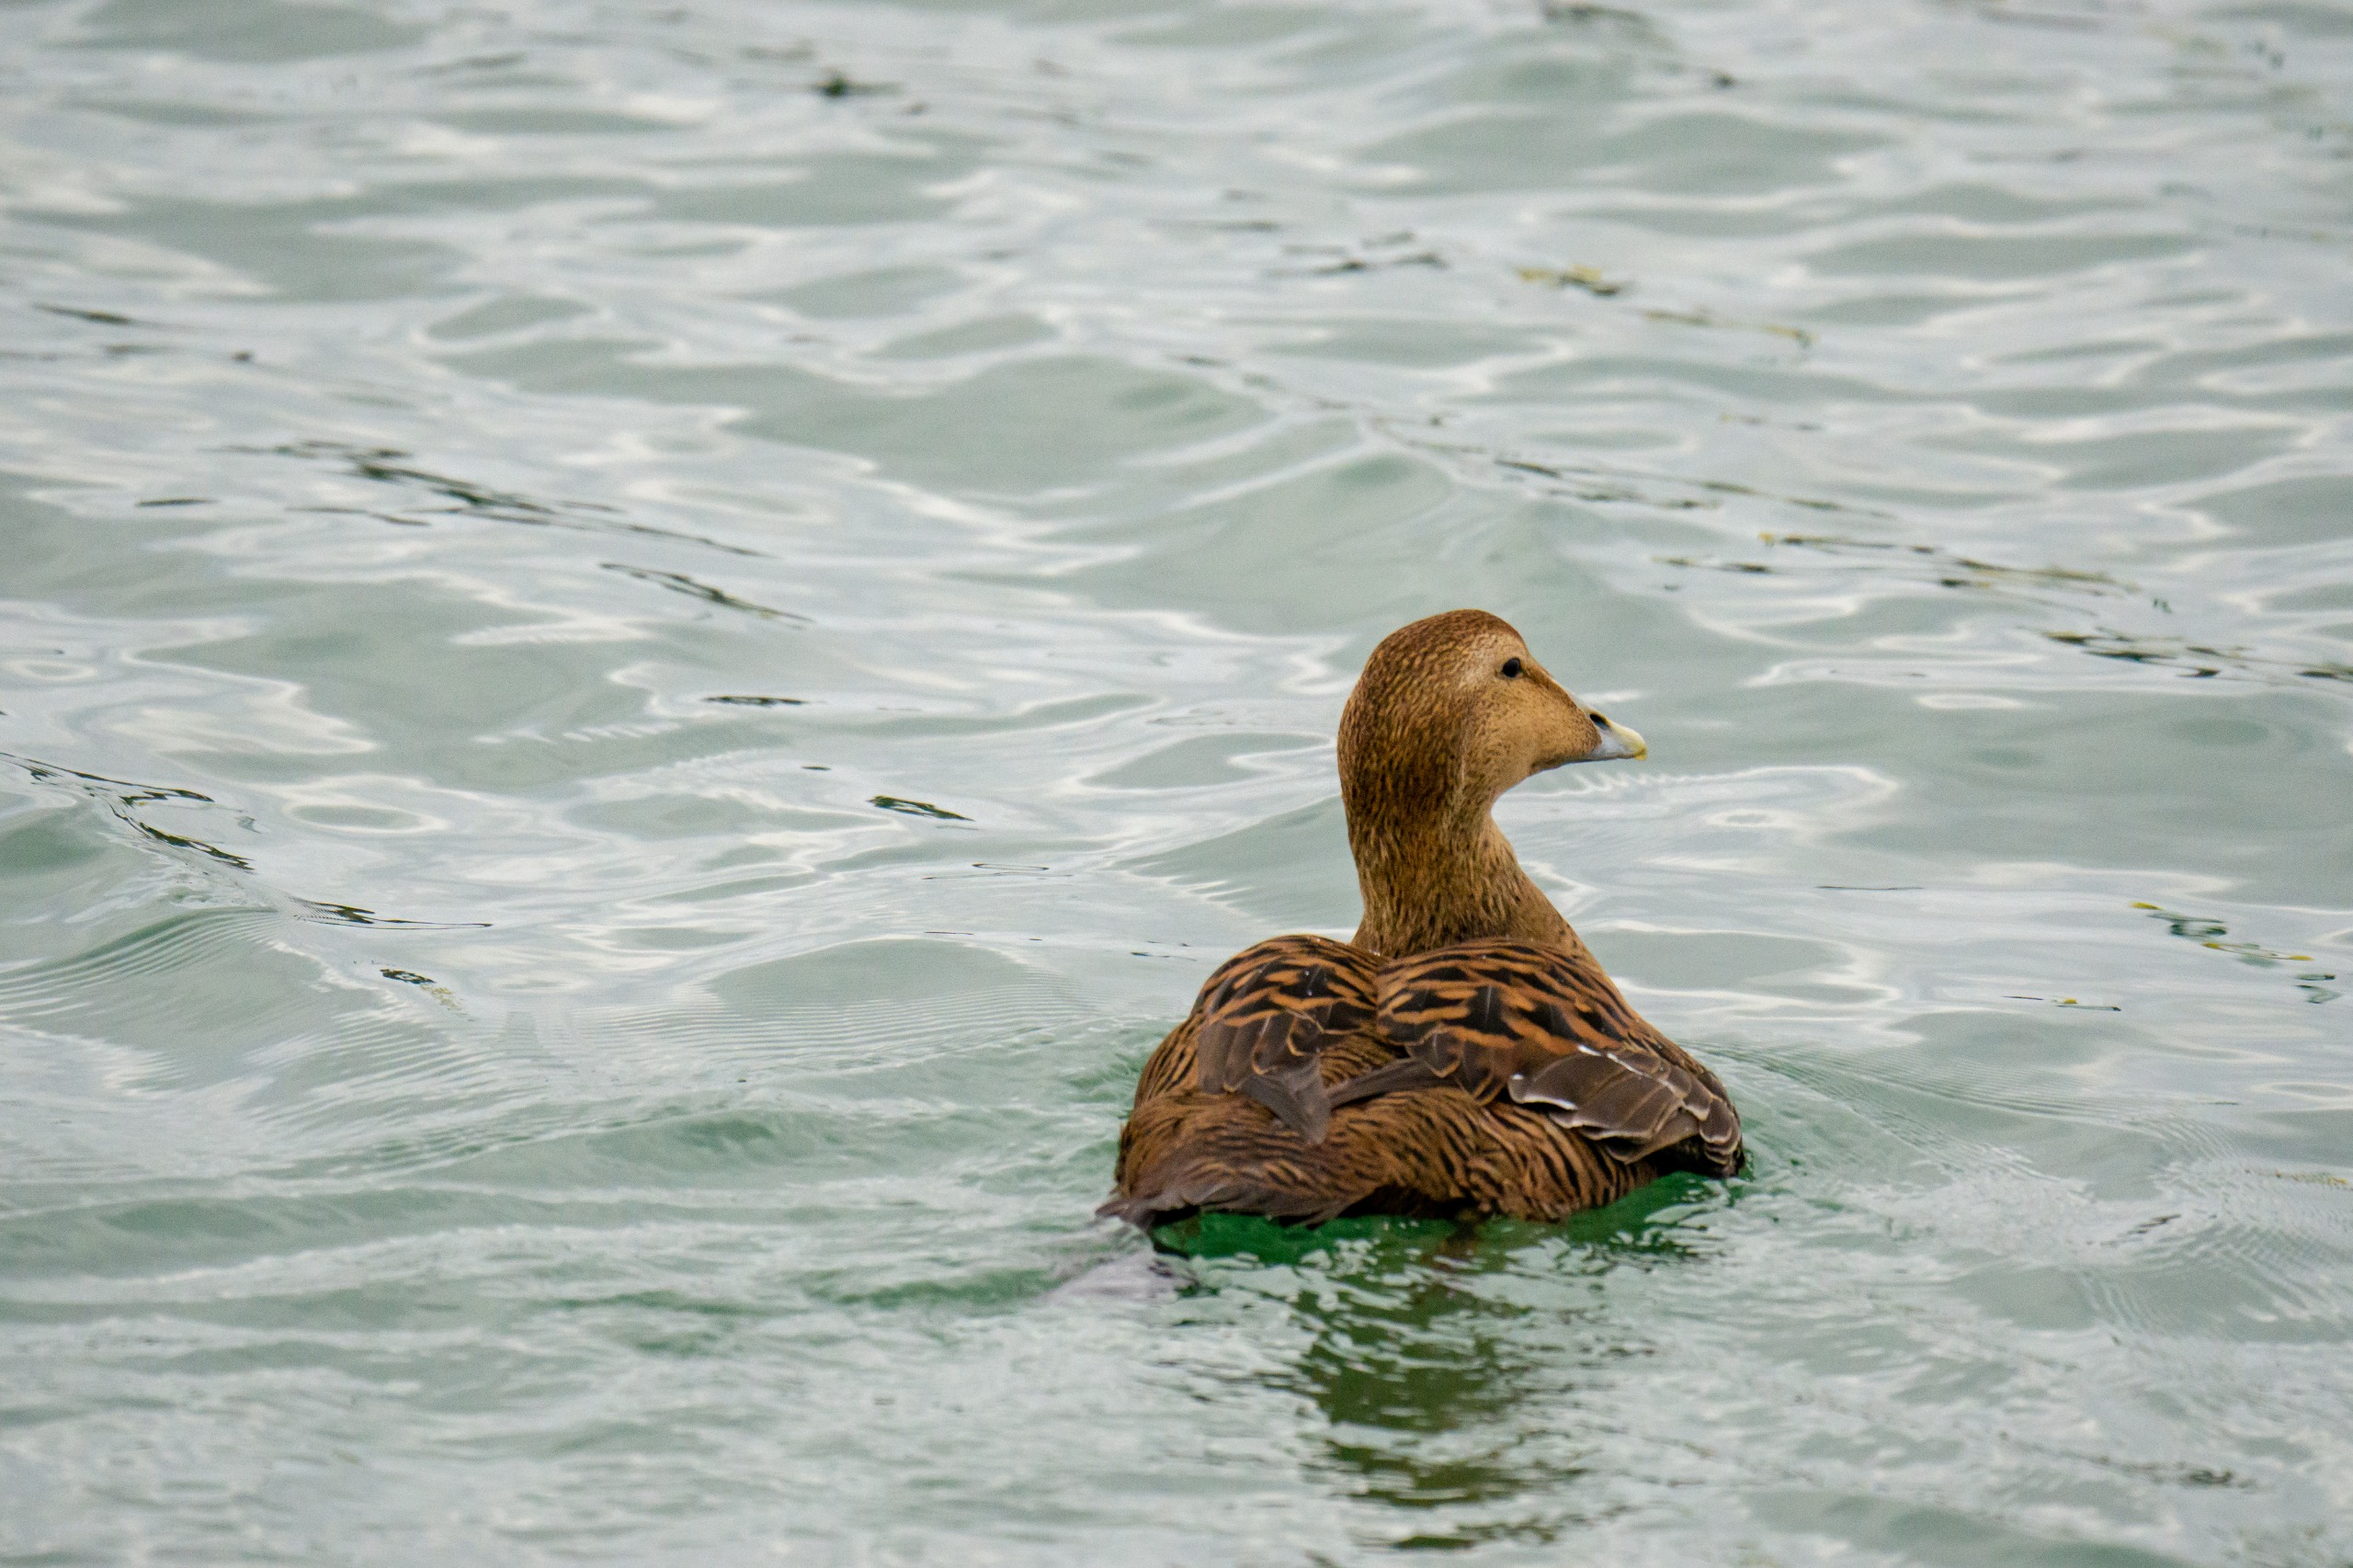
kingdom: Animalia
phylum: Chordata
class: Aves
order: Anseriformes
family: Anatidae
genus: Somateria
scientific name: Somateria mollissima
